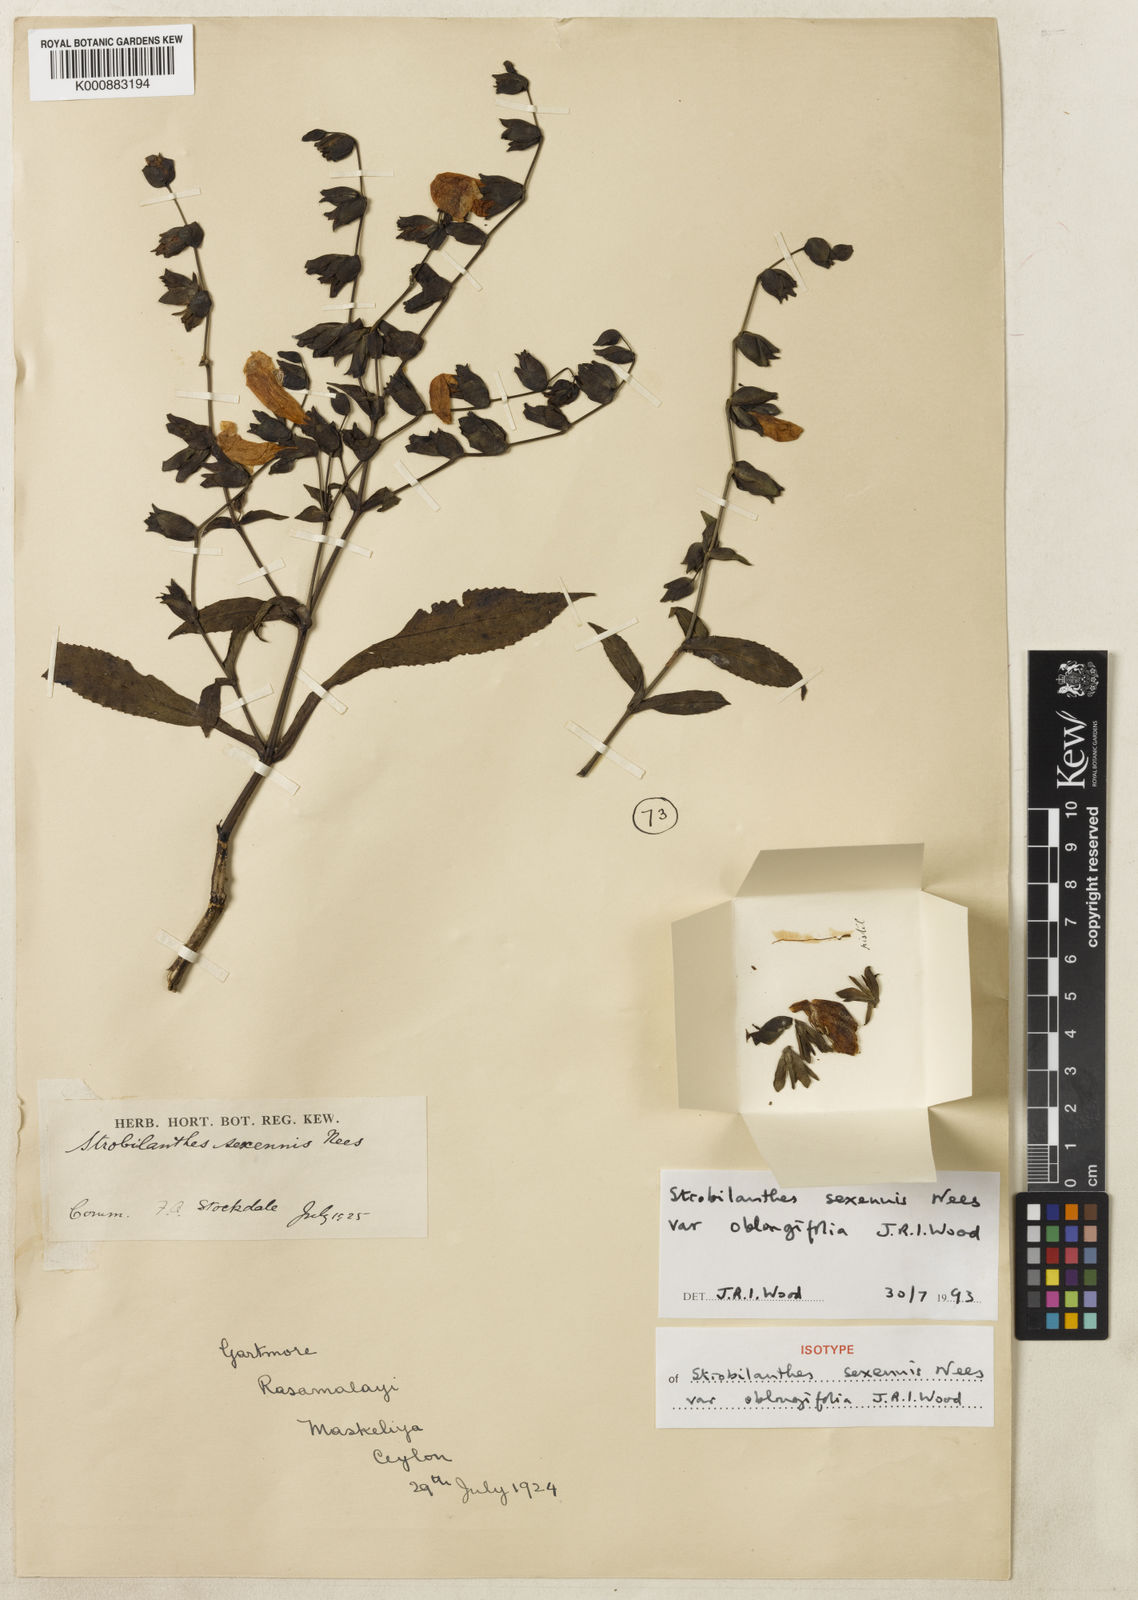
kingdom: Plantae
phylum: Tracheophyta
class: Magnoliopsida
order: Lamiales
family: Acanthaceae
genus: Strobilanthes
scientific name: Strobilanthes sexennis
